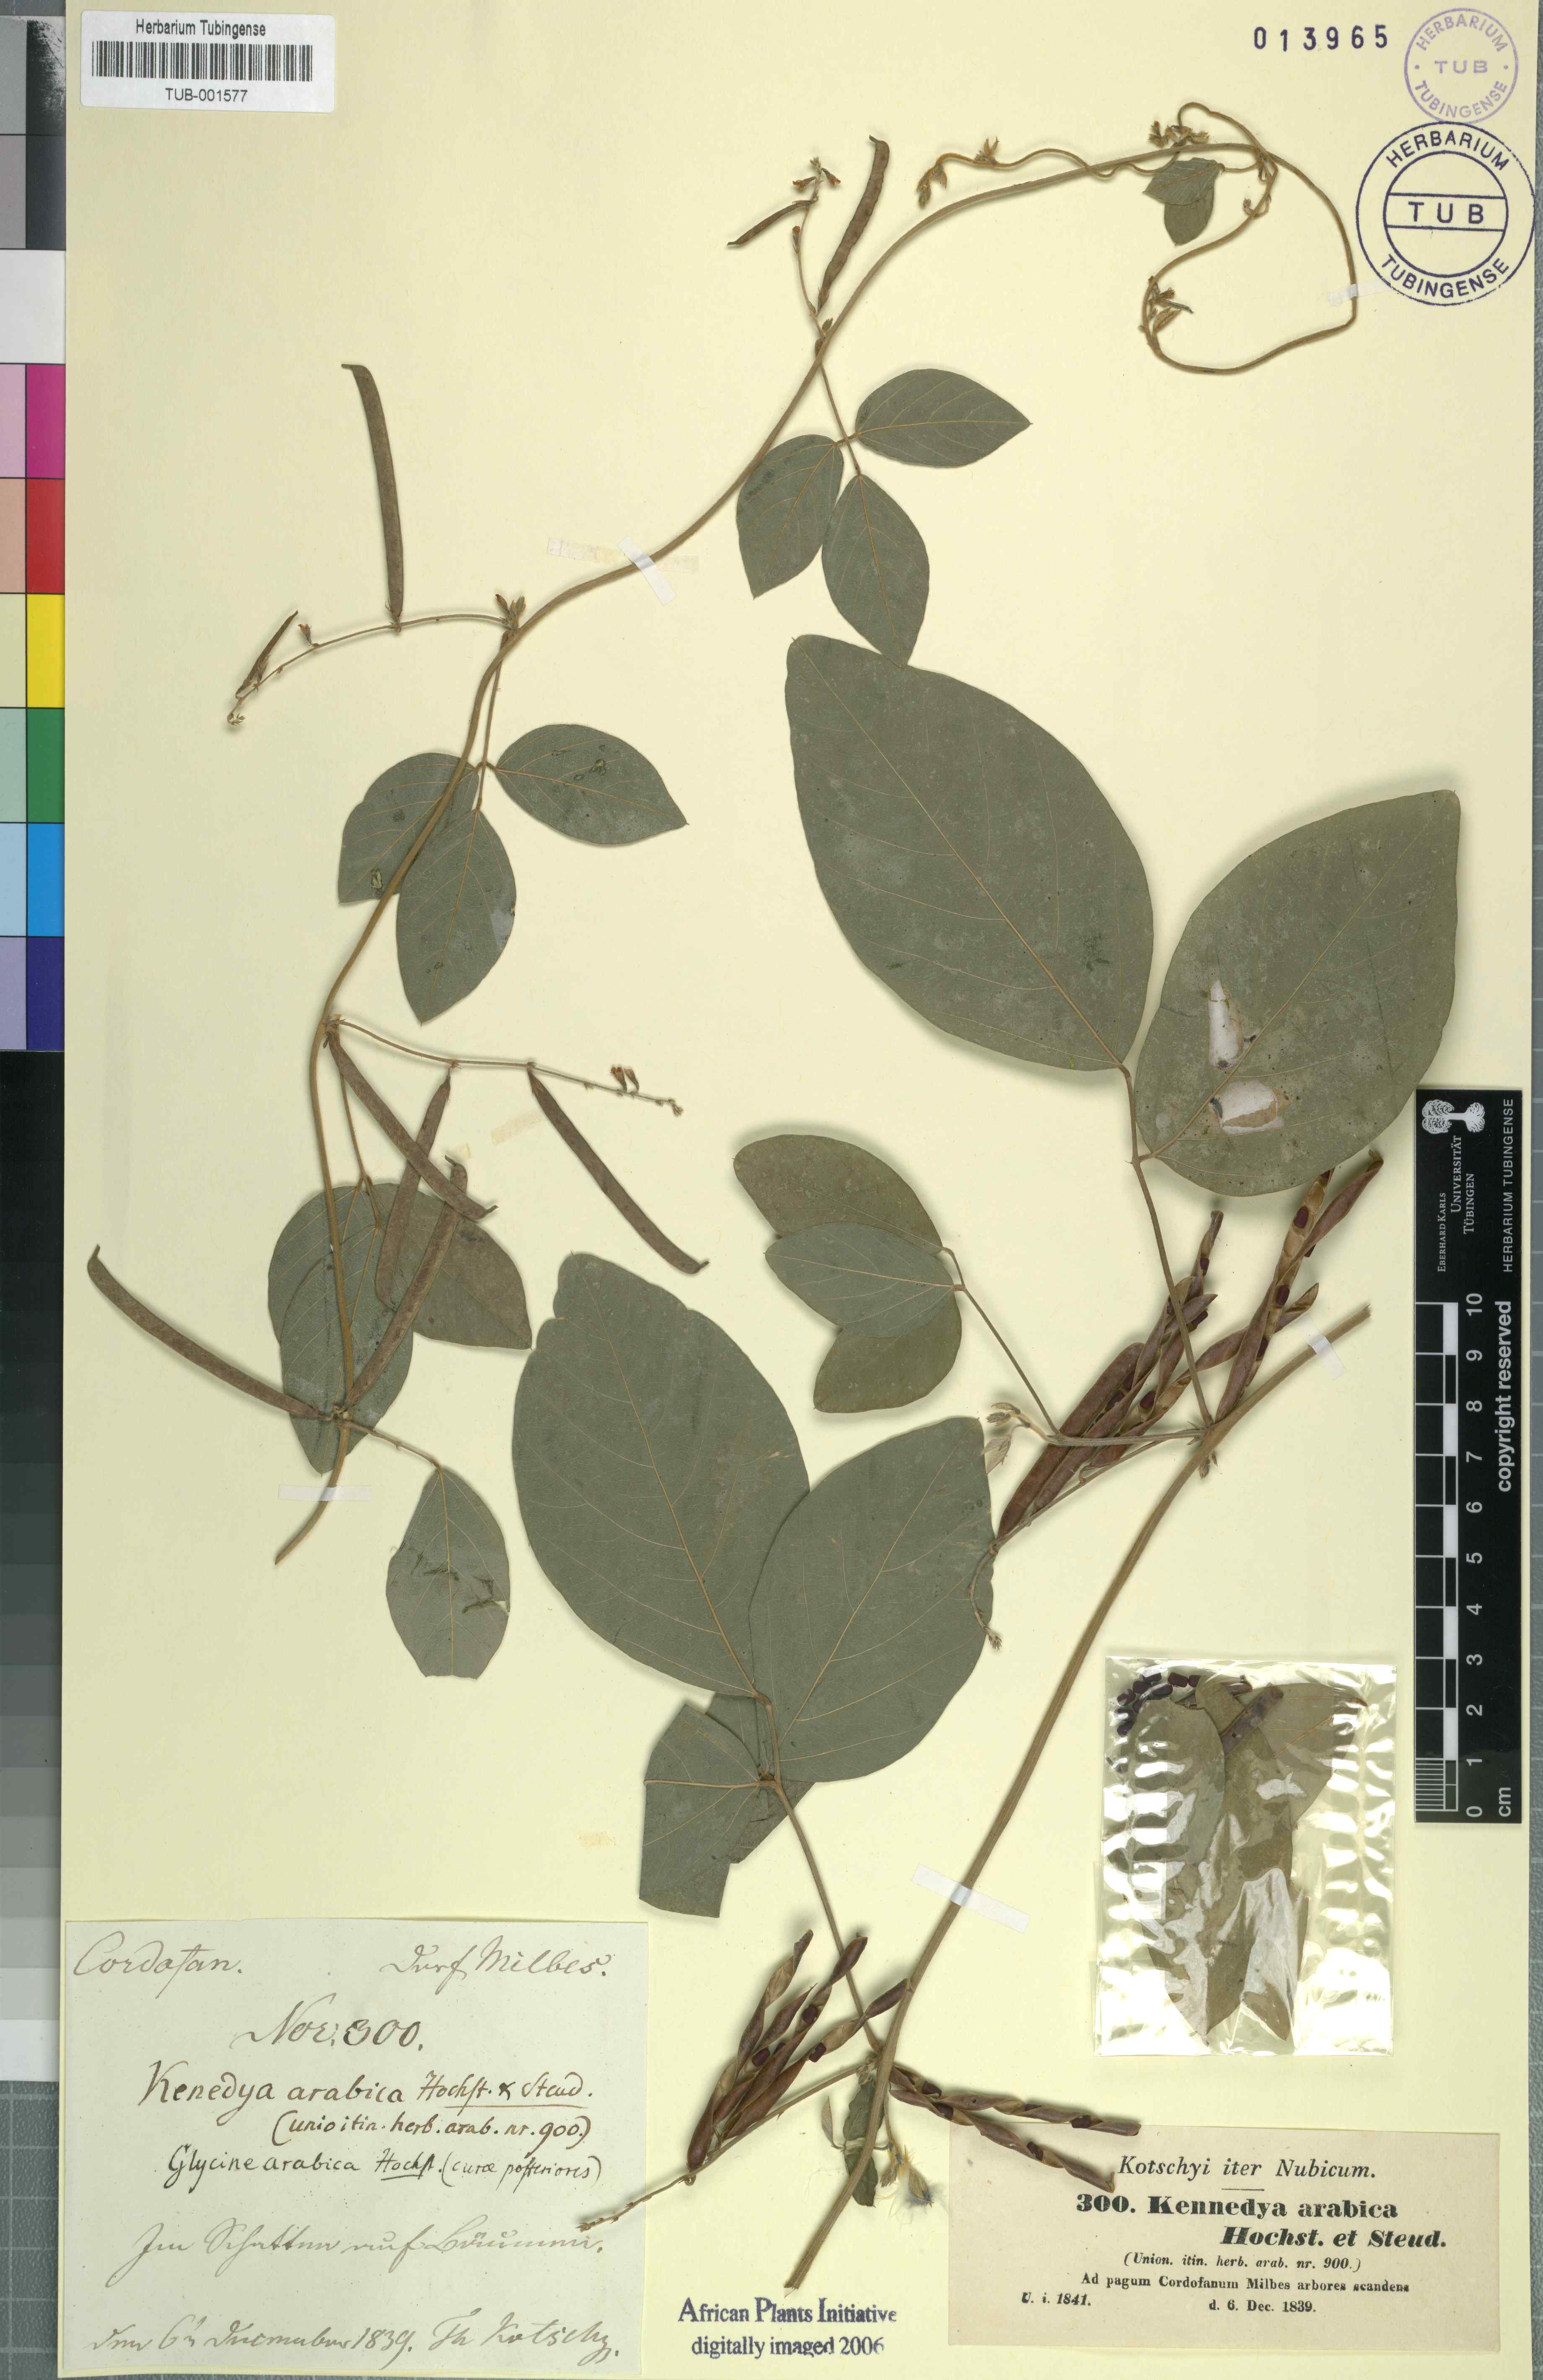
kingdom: Plantae
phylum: Tracheophyta
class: Magnoliopsida
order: Fabales
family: Fabaceae
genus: Teramnus
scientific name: Teramnus labialis
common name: Blue wiss
